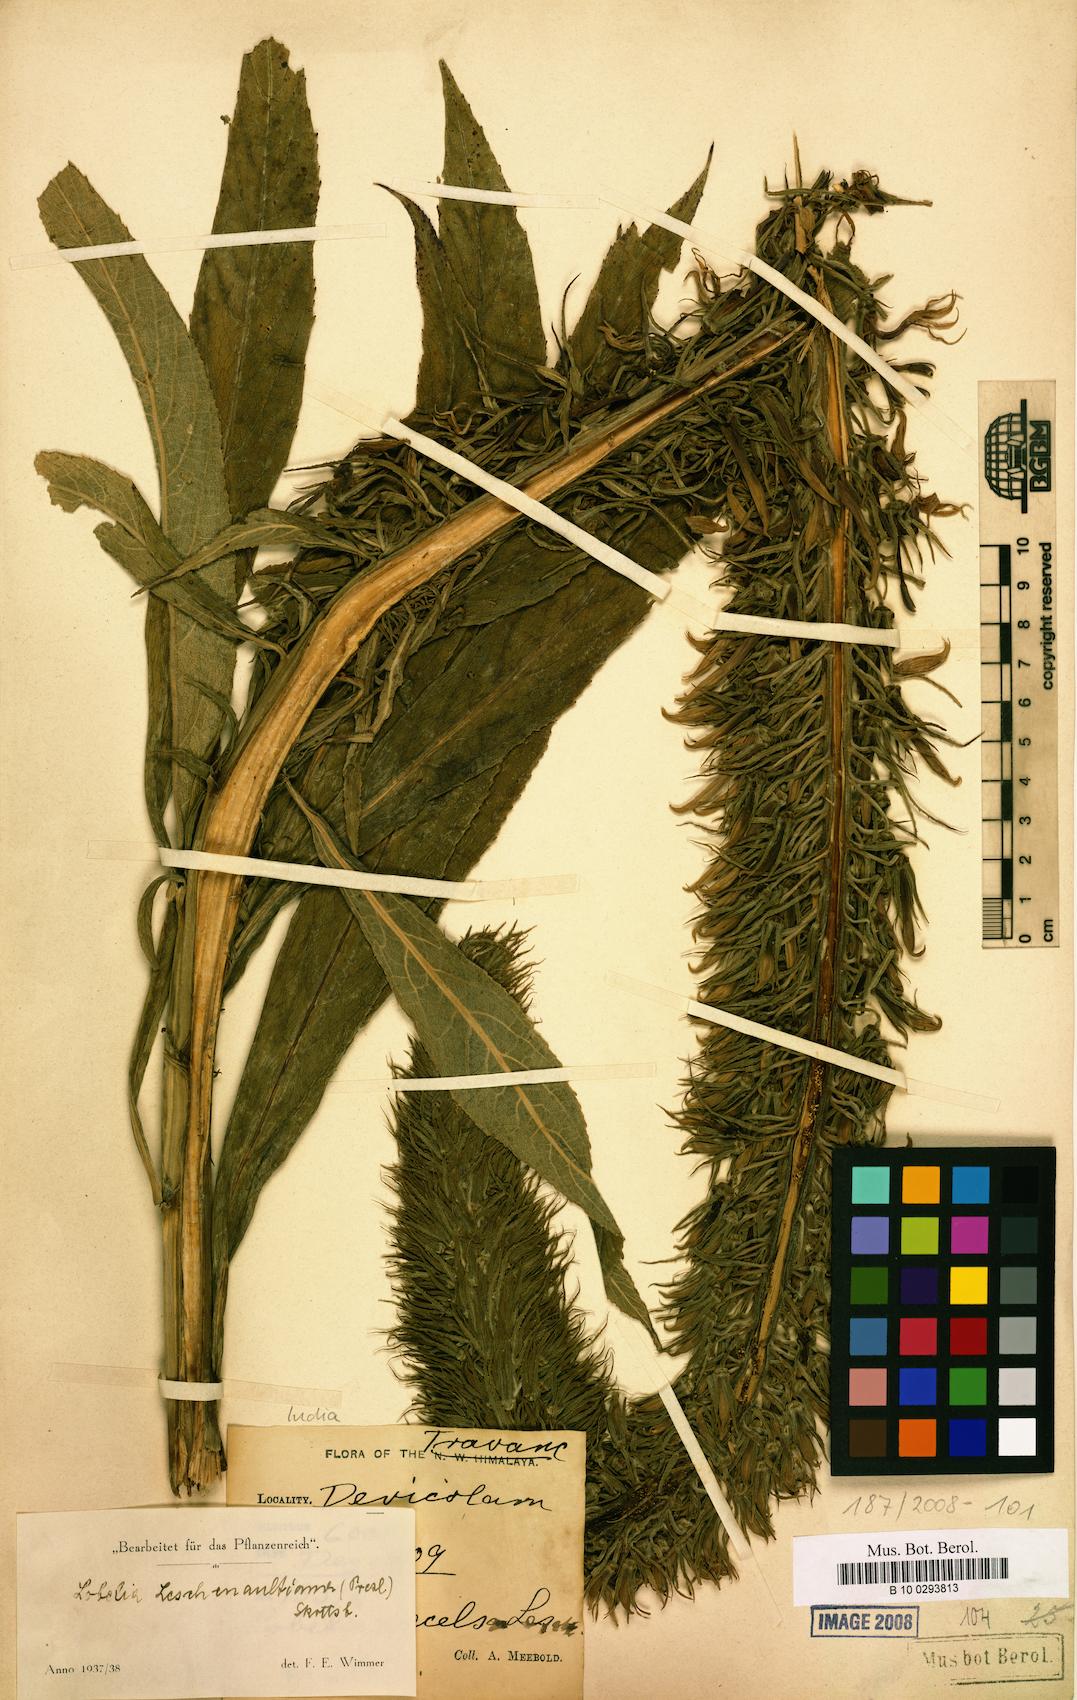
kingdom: Plantae
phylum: Tracheophyta
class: Magnoliopsida
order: Asterales
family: Campanulaceae
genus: Lobelia
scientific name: Lobelia leschenaultiana
